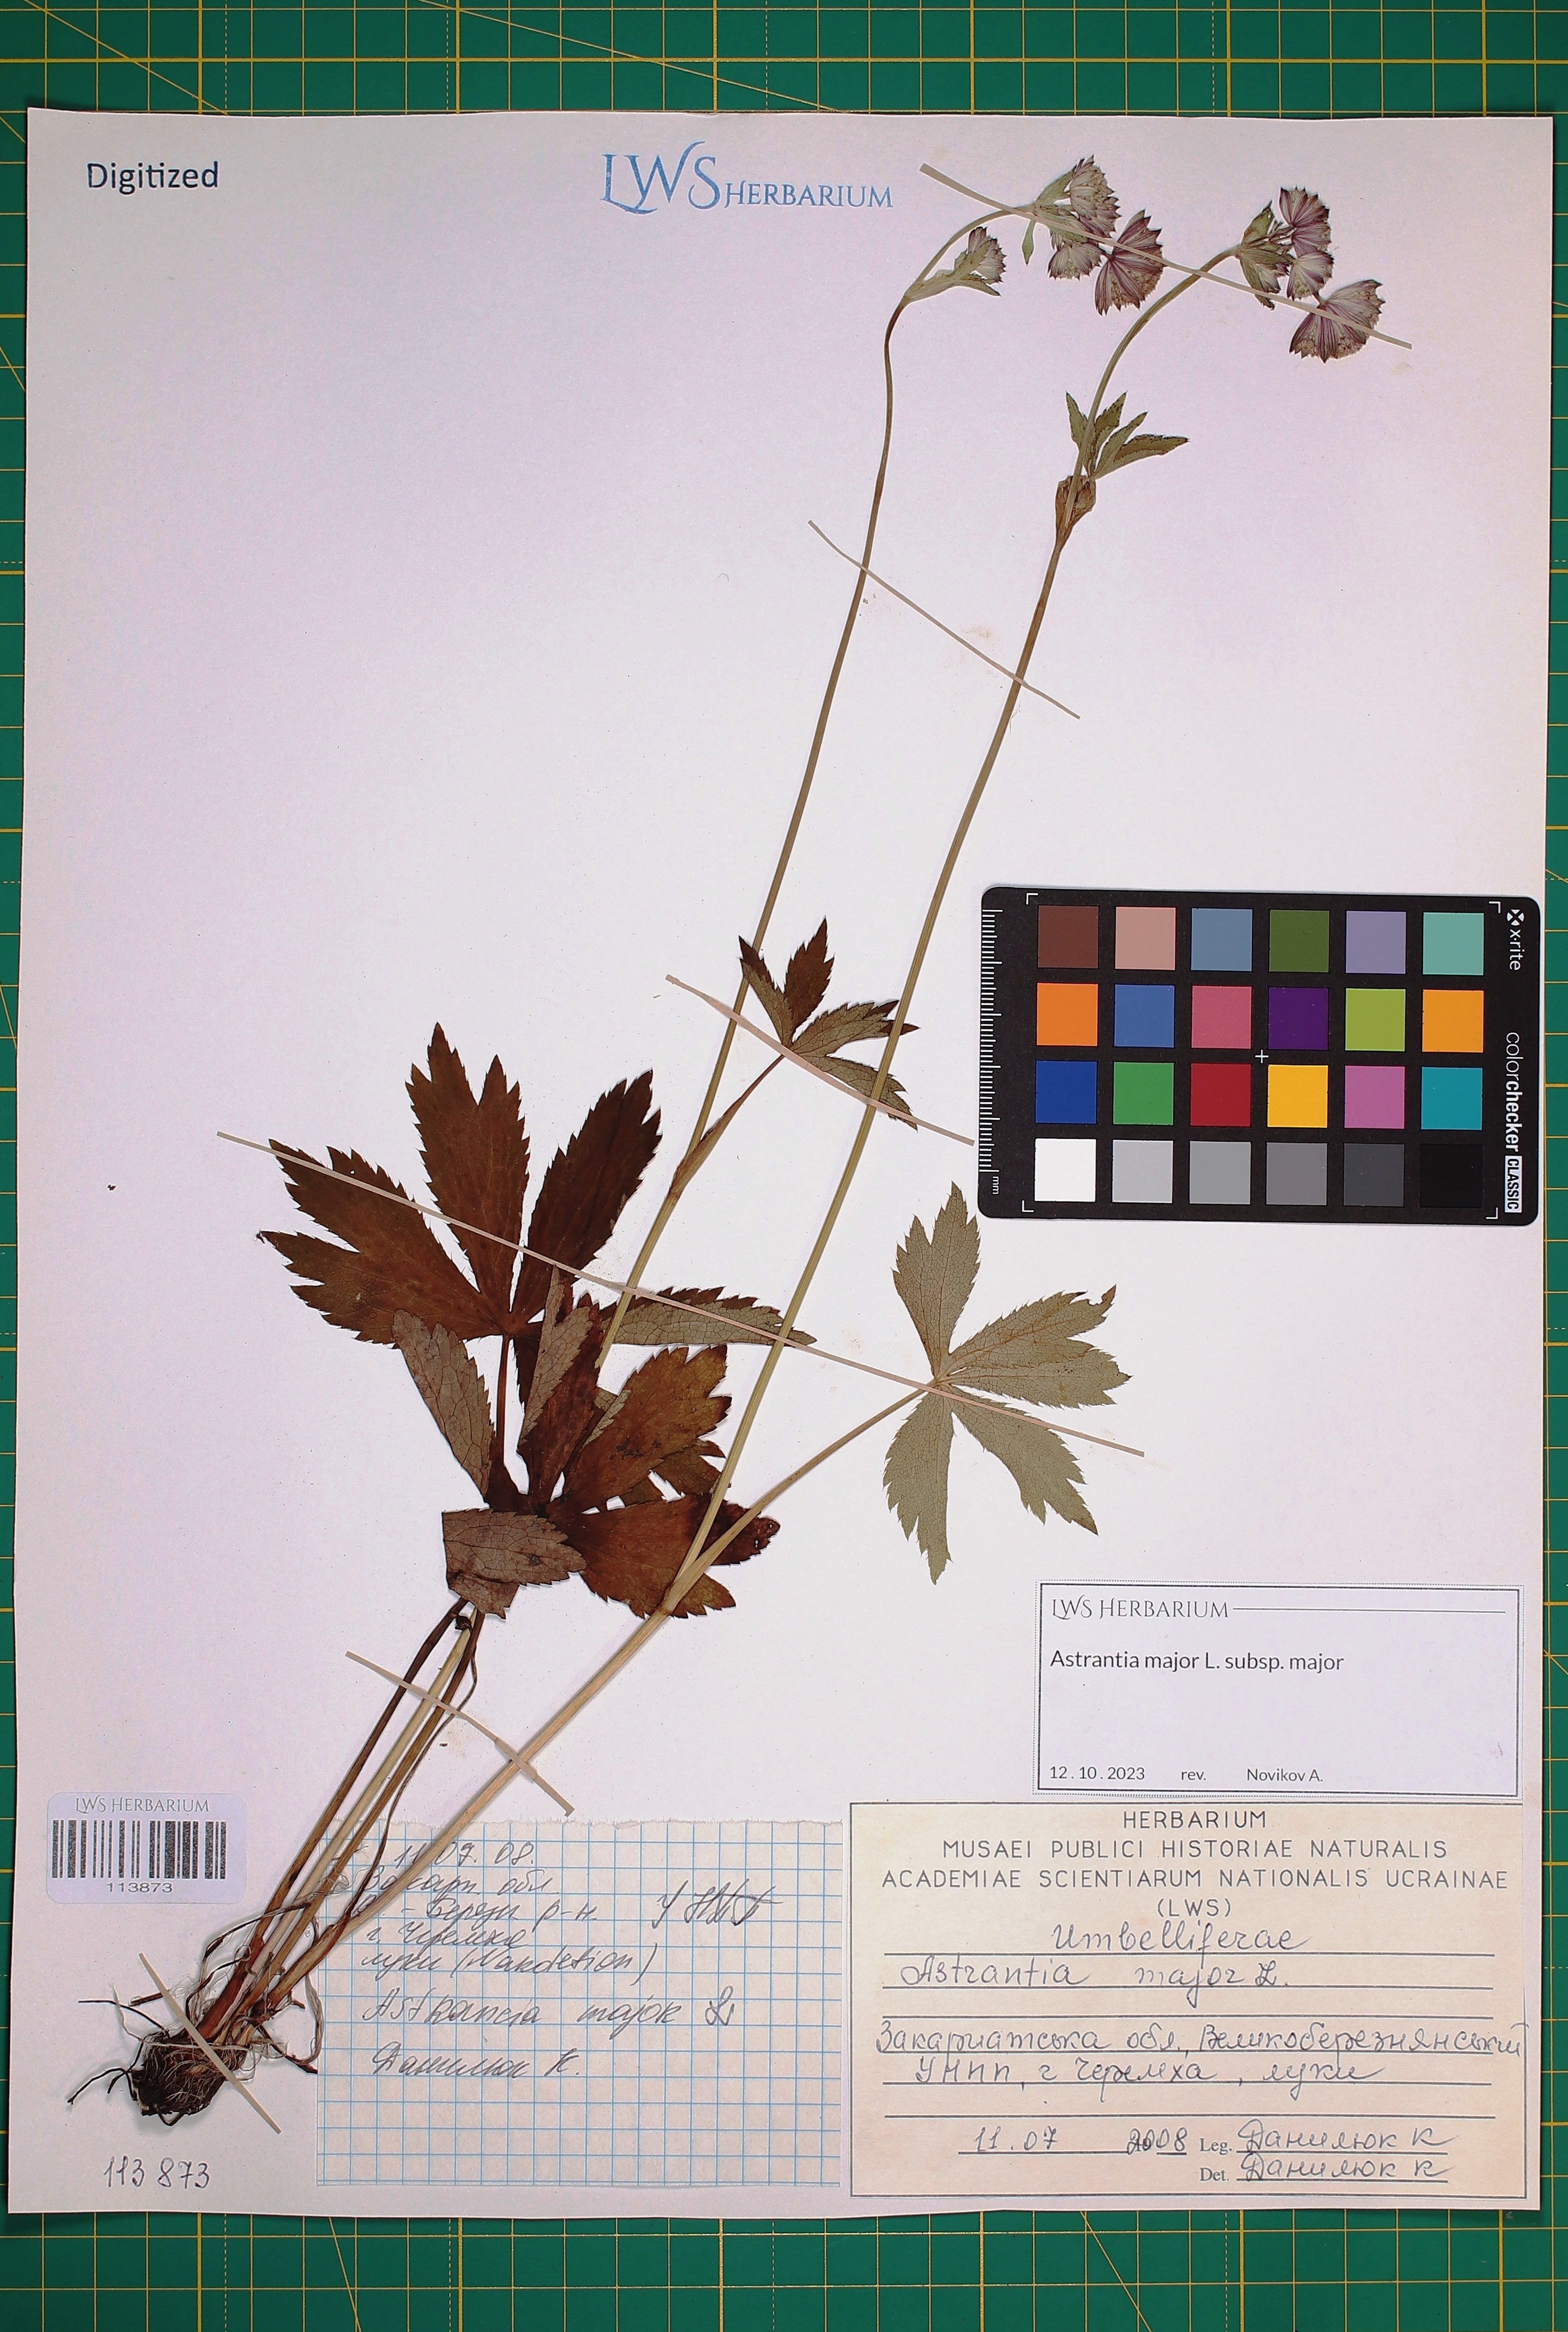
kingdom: Plantae
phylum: Tracheophyta
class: Magnoliopsida
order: Apiales
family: Apiaceae
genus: Astrantia
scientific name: Astrantia major
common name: Greater masterwort
